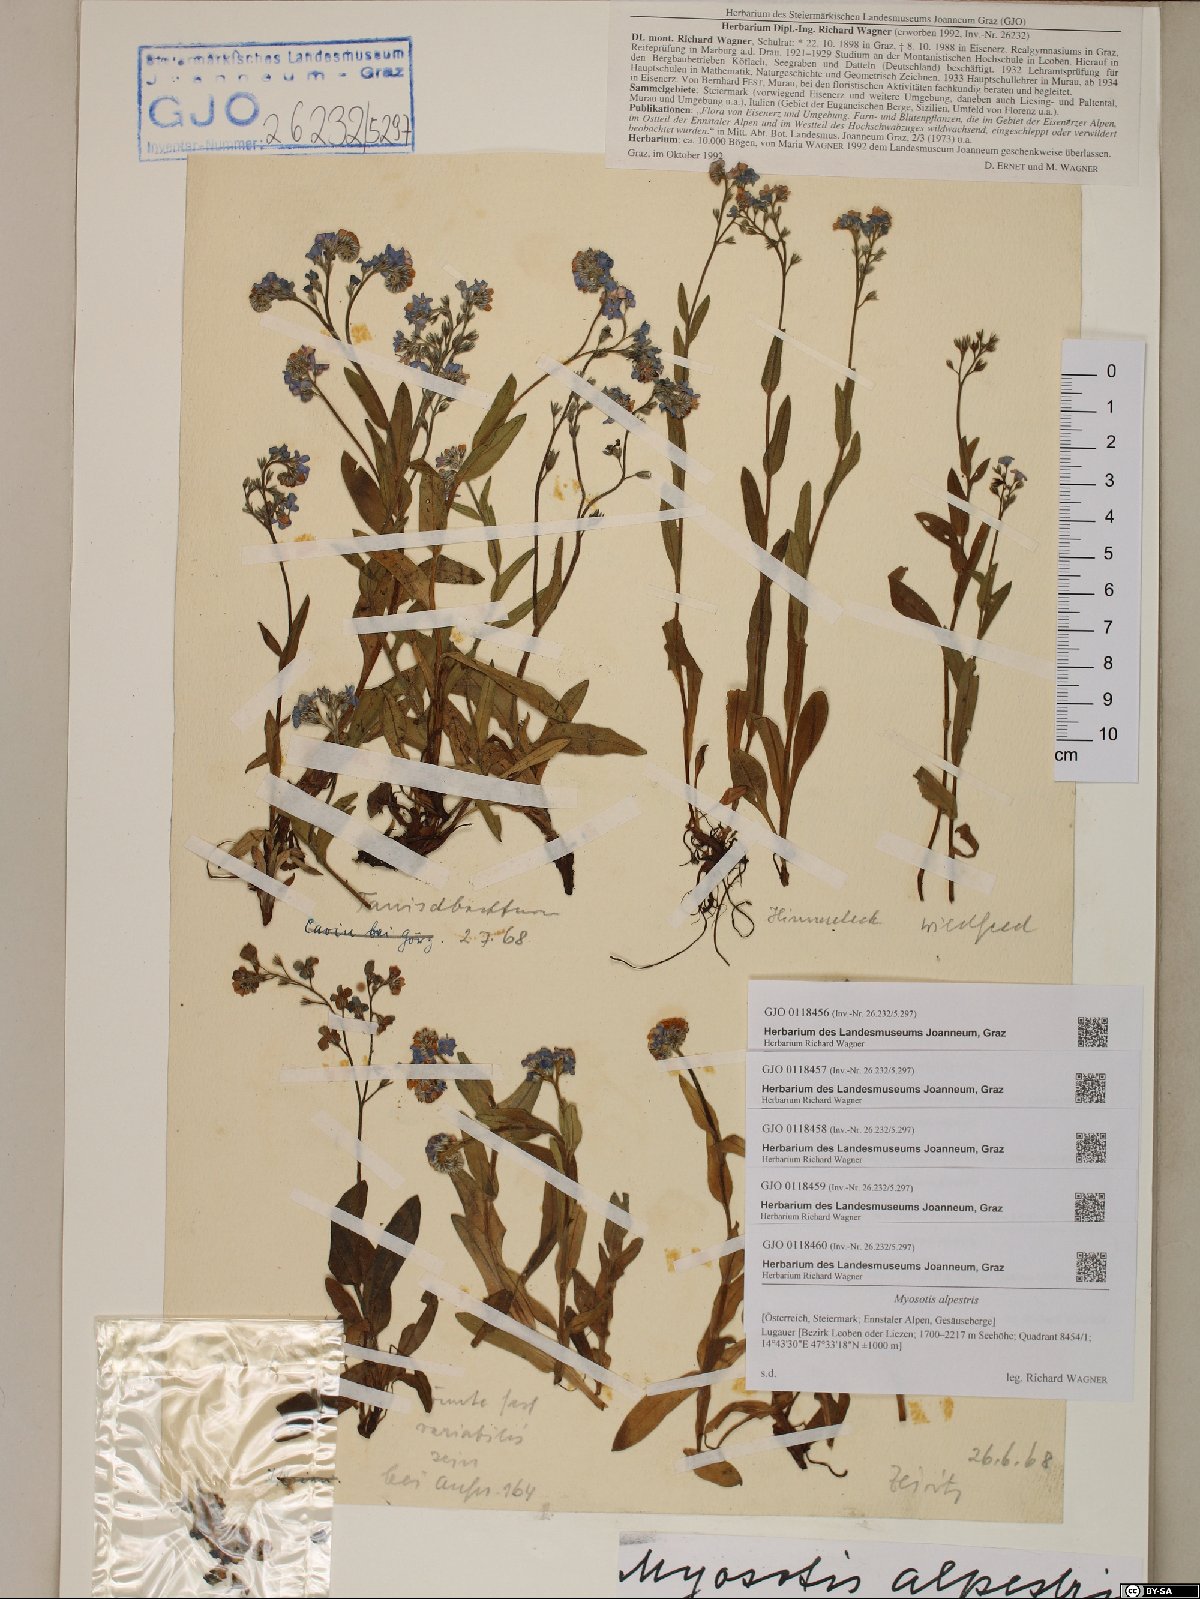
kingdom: Plantae
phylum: Tracheophyta
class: Magnoliopsida
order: Boraginales
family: Boraginaceae
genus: Myosotis
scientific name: Myosotis alpestris
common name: Alpine forget-me-not
